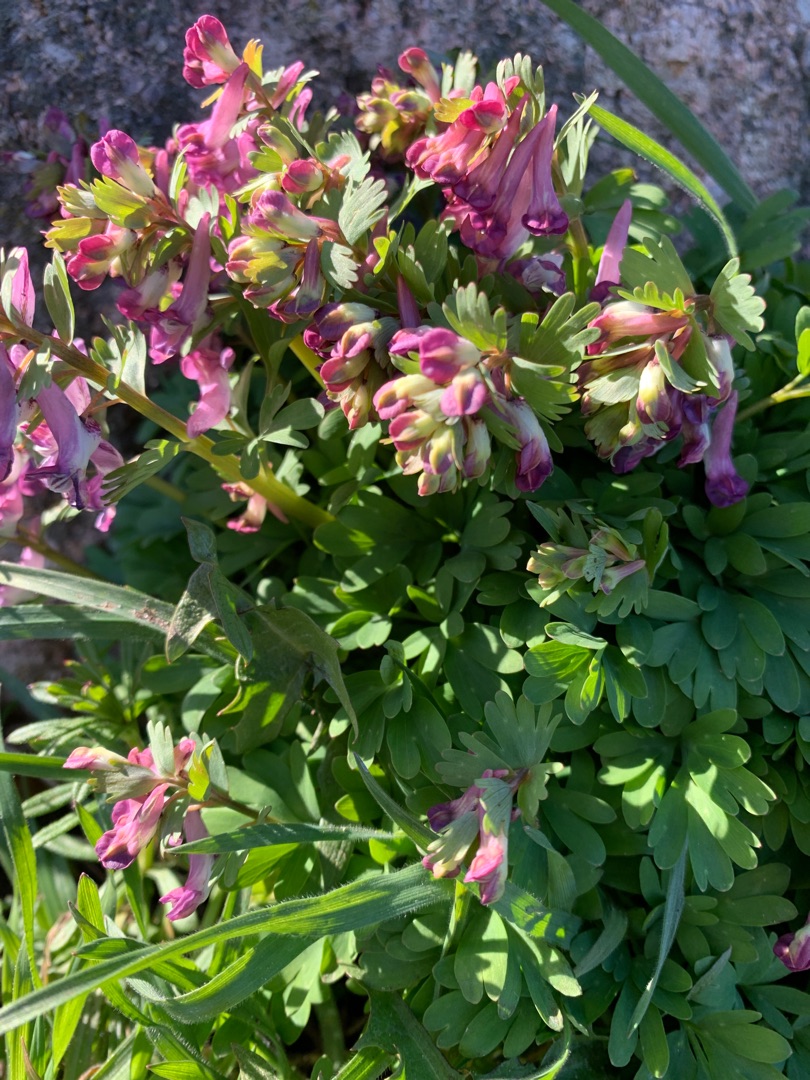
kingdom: Plantae
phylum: Tracheophyta
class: Magnoliopsida
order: Ranunculales
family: Papaveraceae
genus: Corydalis
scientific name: Corydalis solida
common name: Langstilket lærkespore
